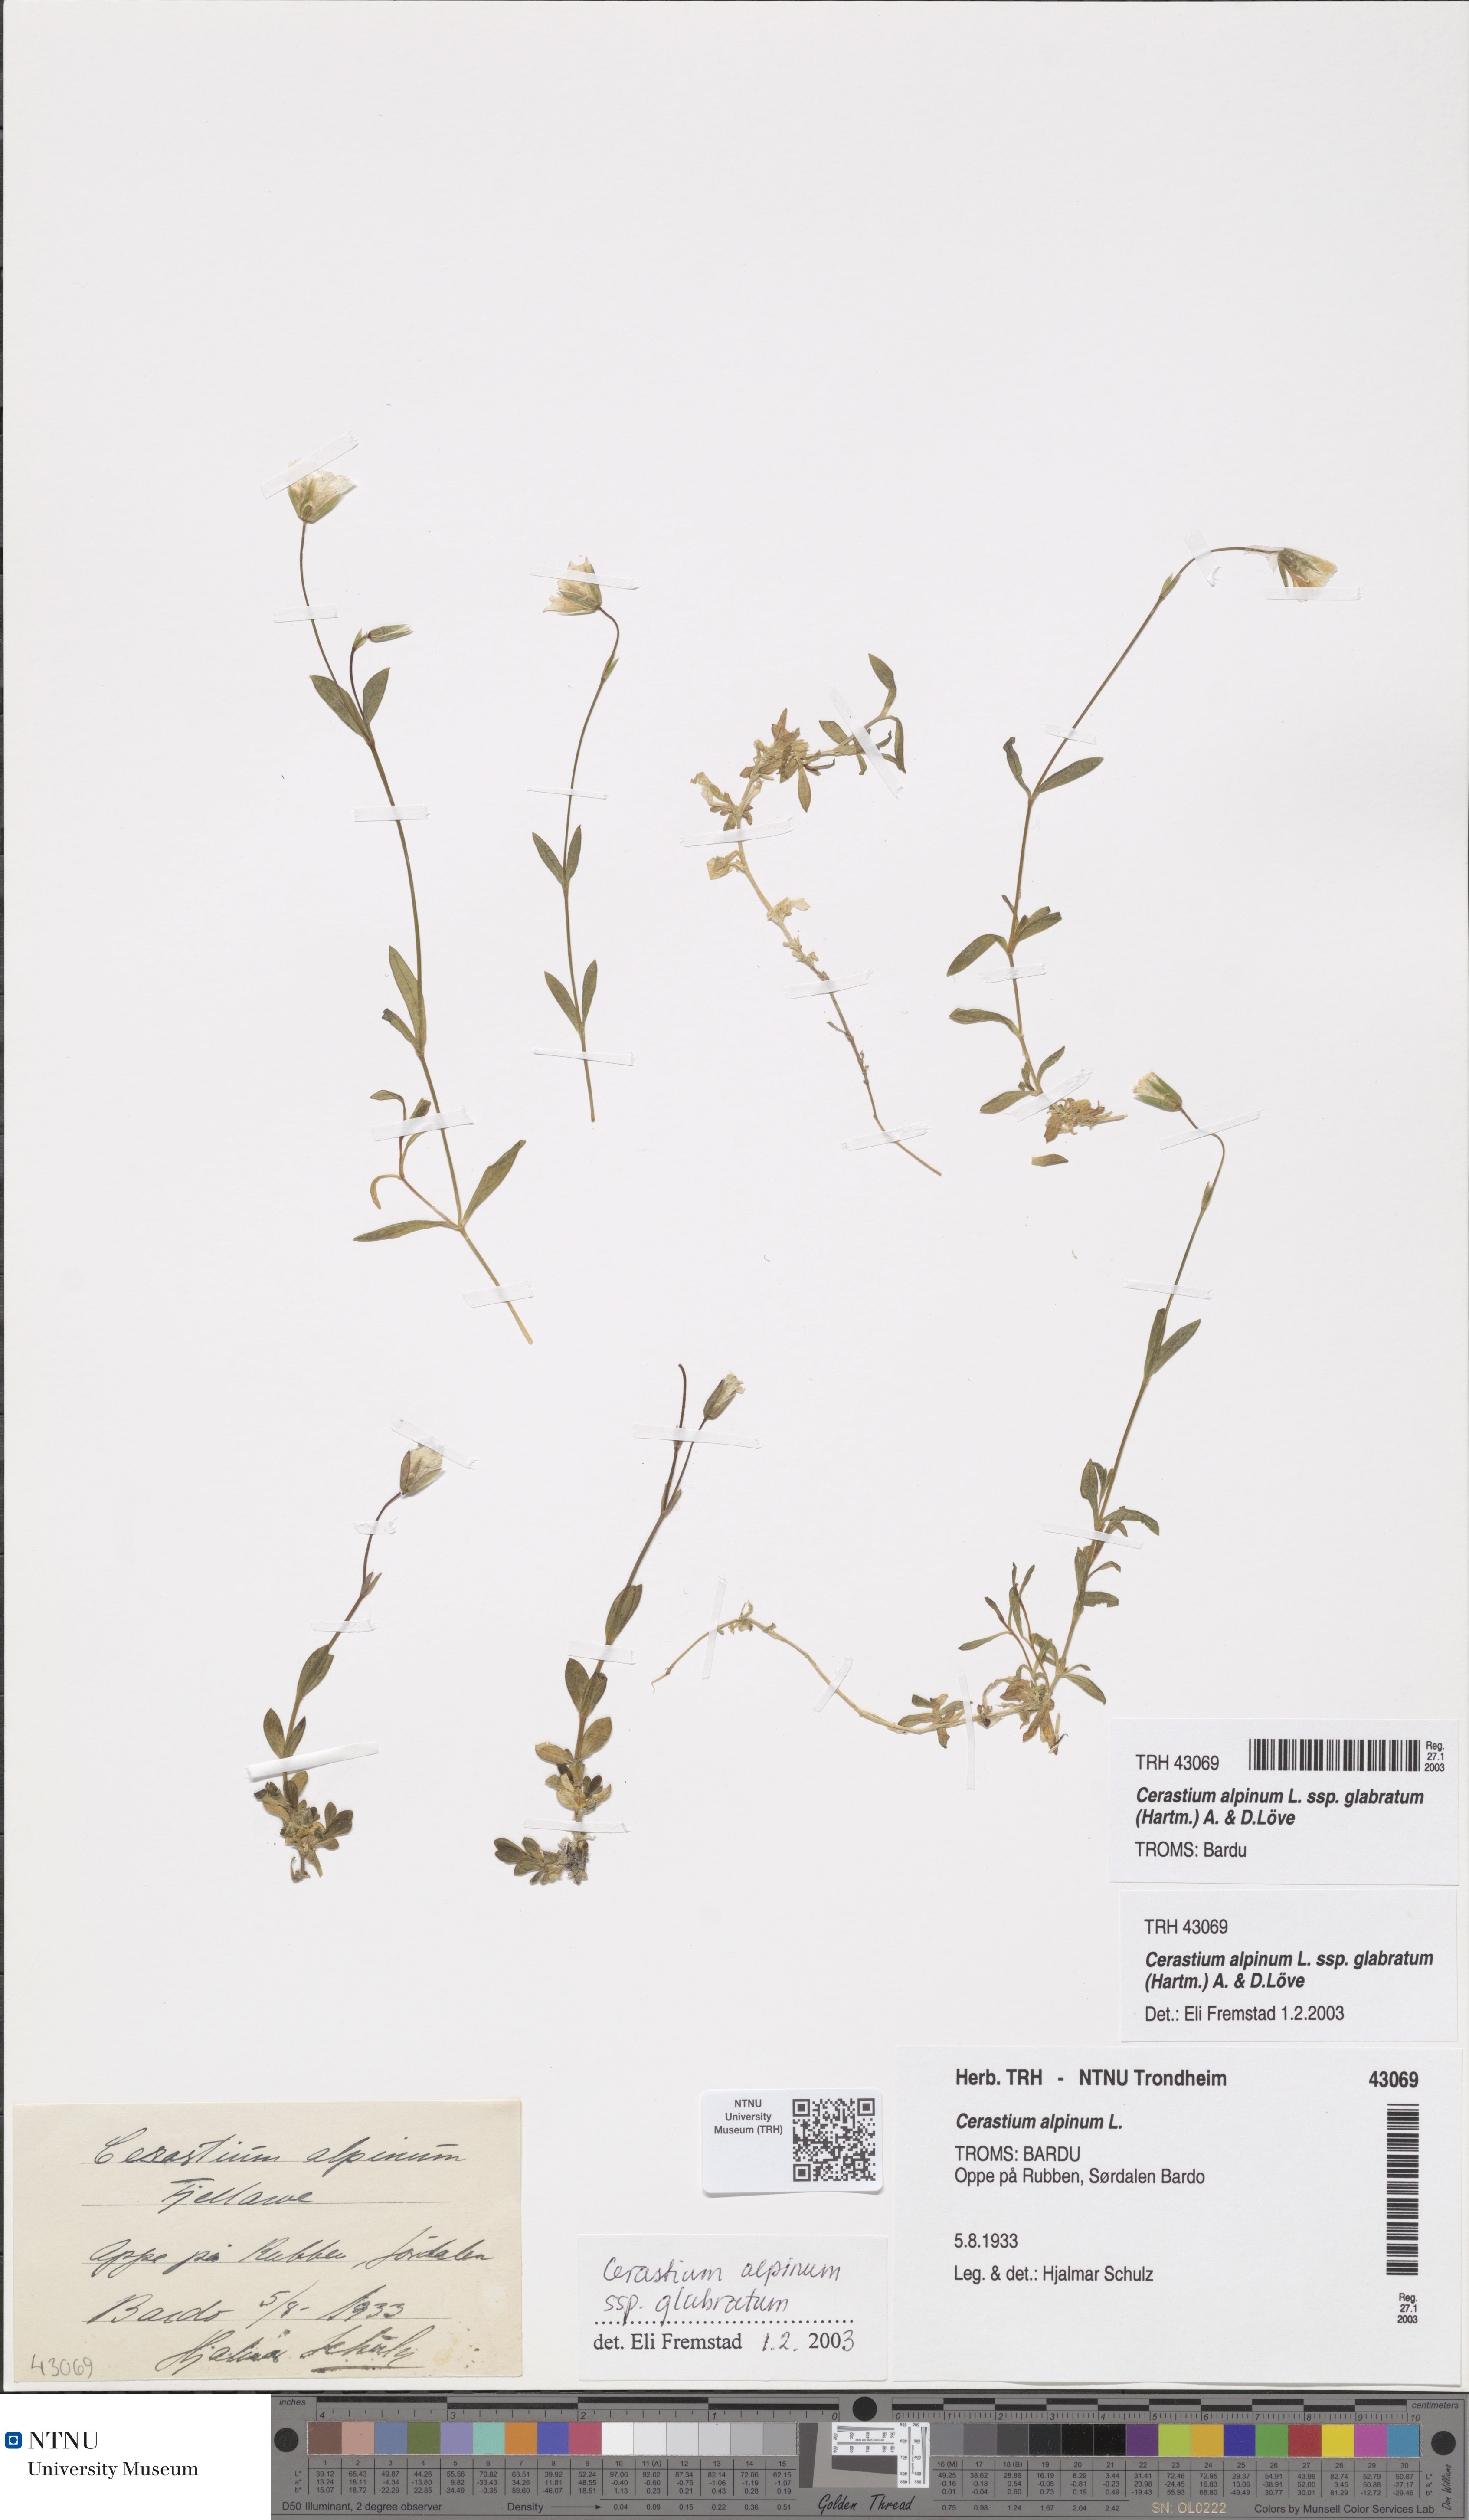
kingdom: Plantae
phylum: Tracheophyta
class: Magnoliopsida
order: Caryophyllales
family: Caryophyllaceae
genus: Cerastium
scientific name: Cerastium alpinum
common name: Alpine mouse-ear
